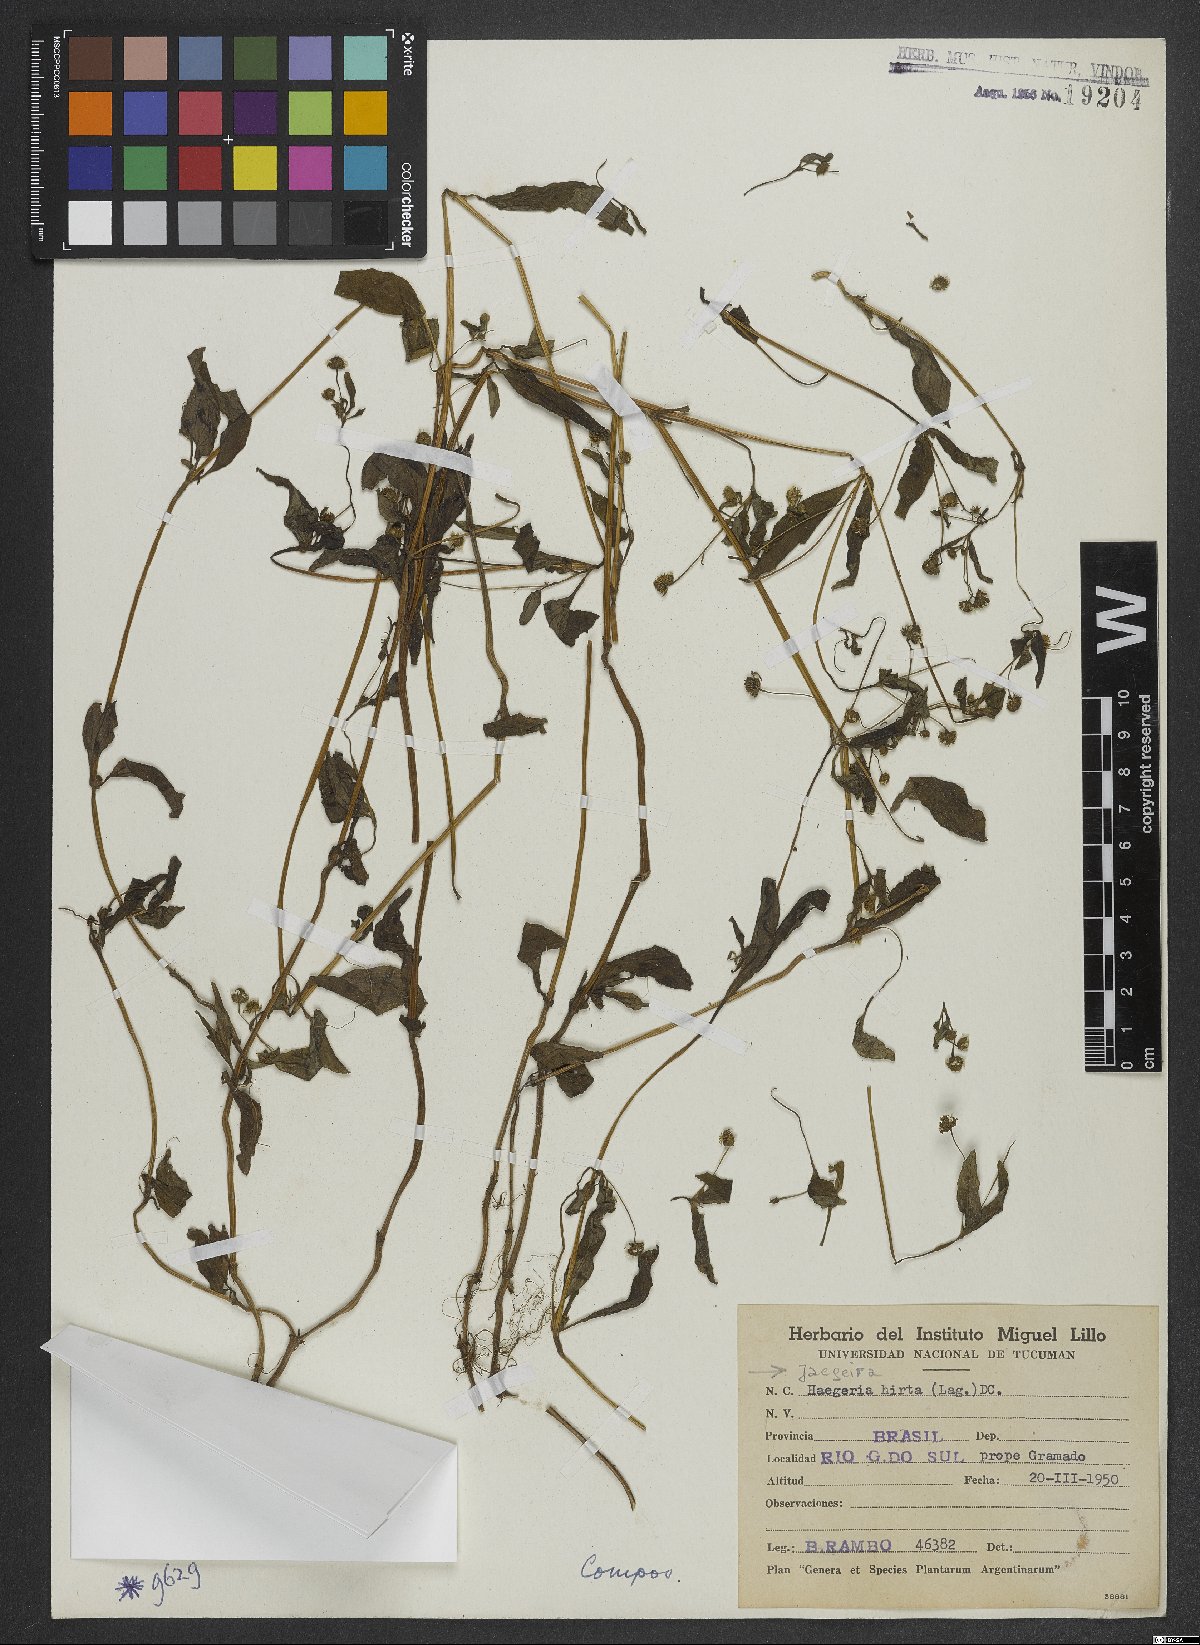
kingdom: Plantae
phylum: Tracheophyta
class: Magnoliopsida
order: Asterales
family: Asteraceae
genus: Jaegeria
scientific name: Jaegeria hirta
